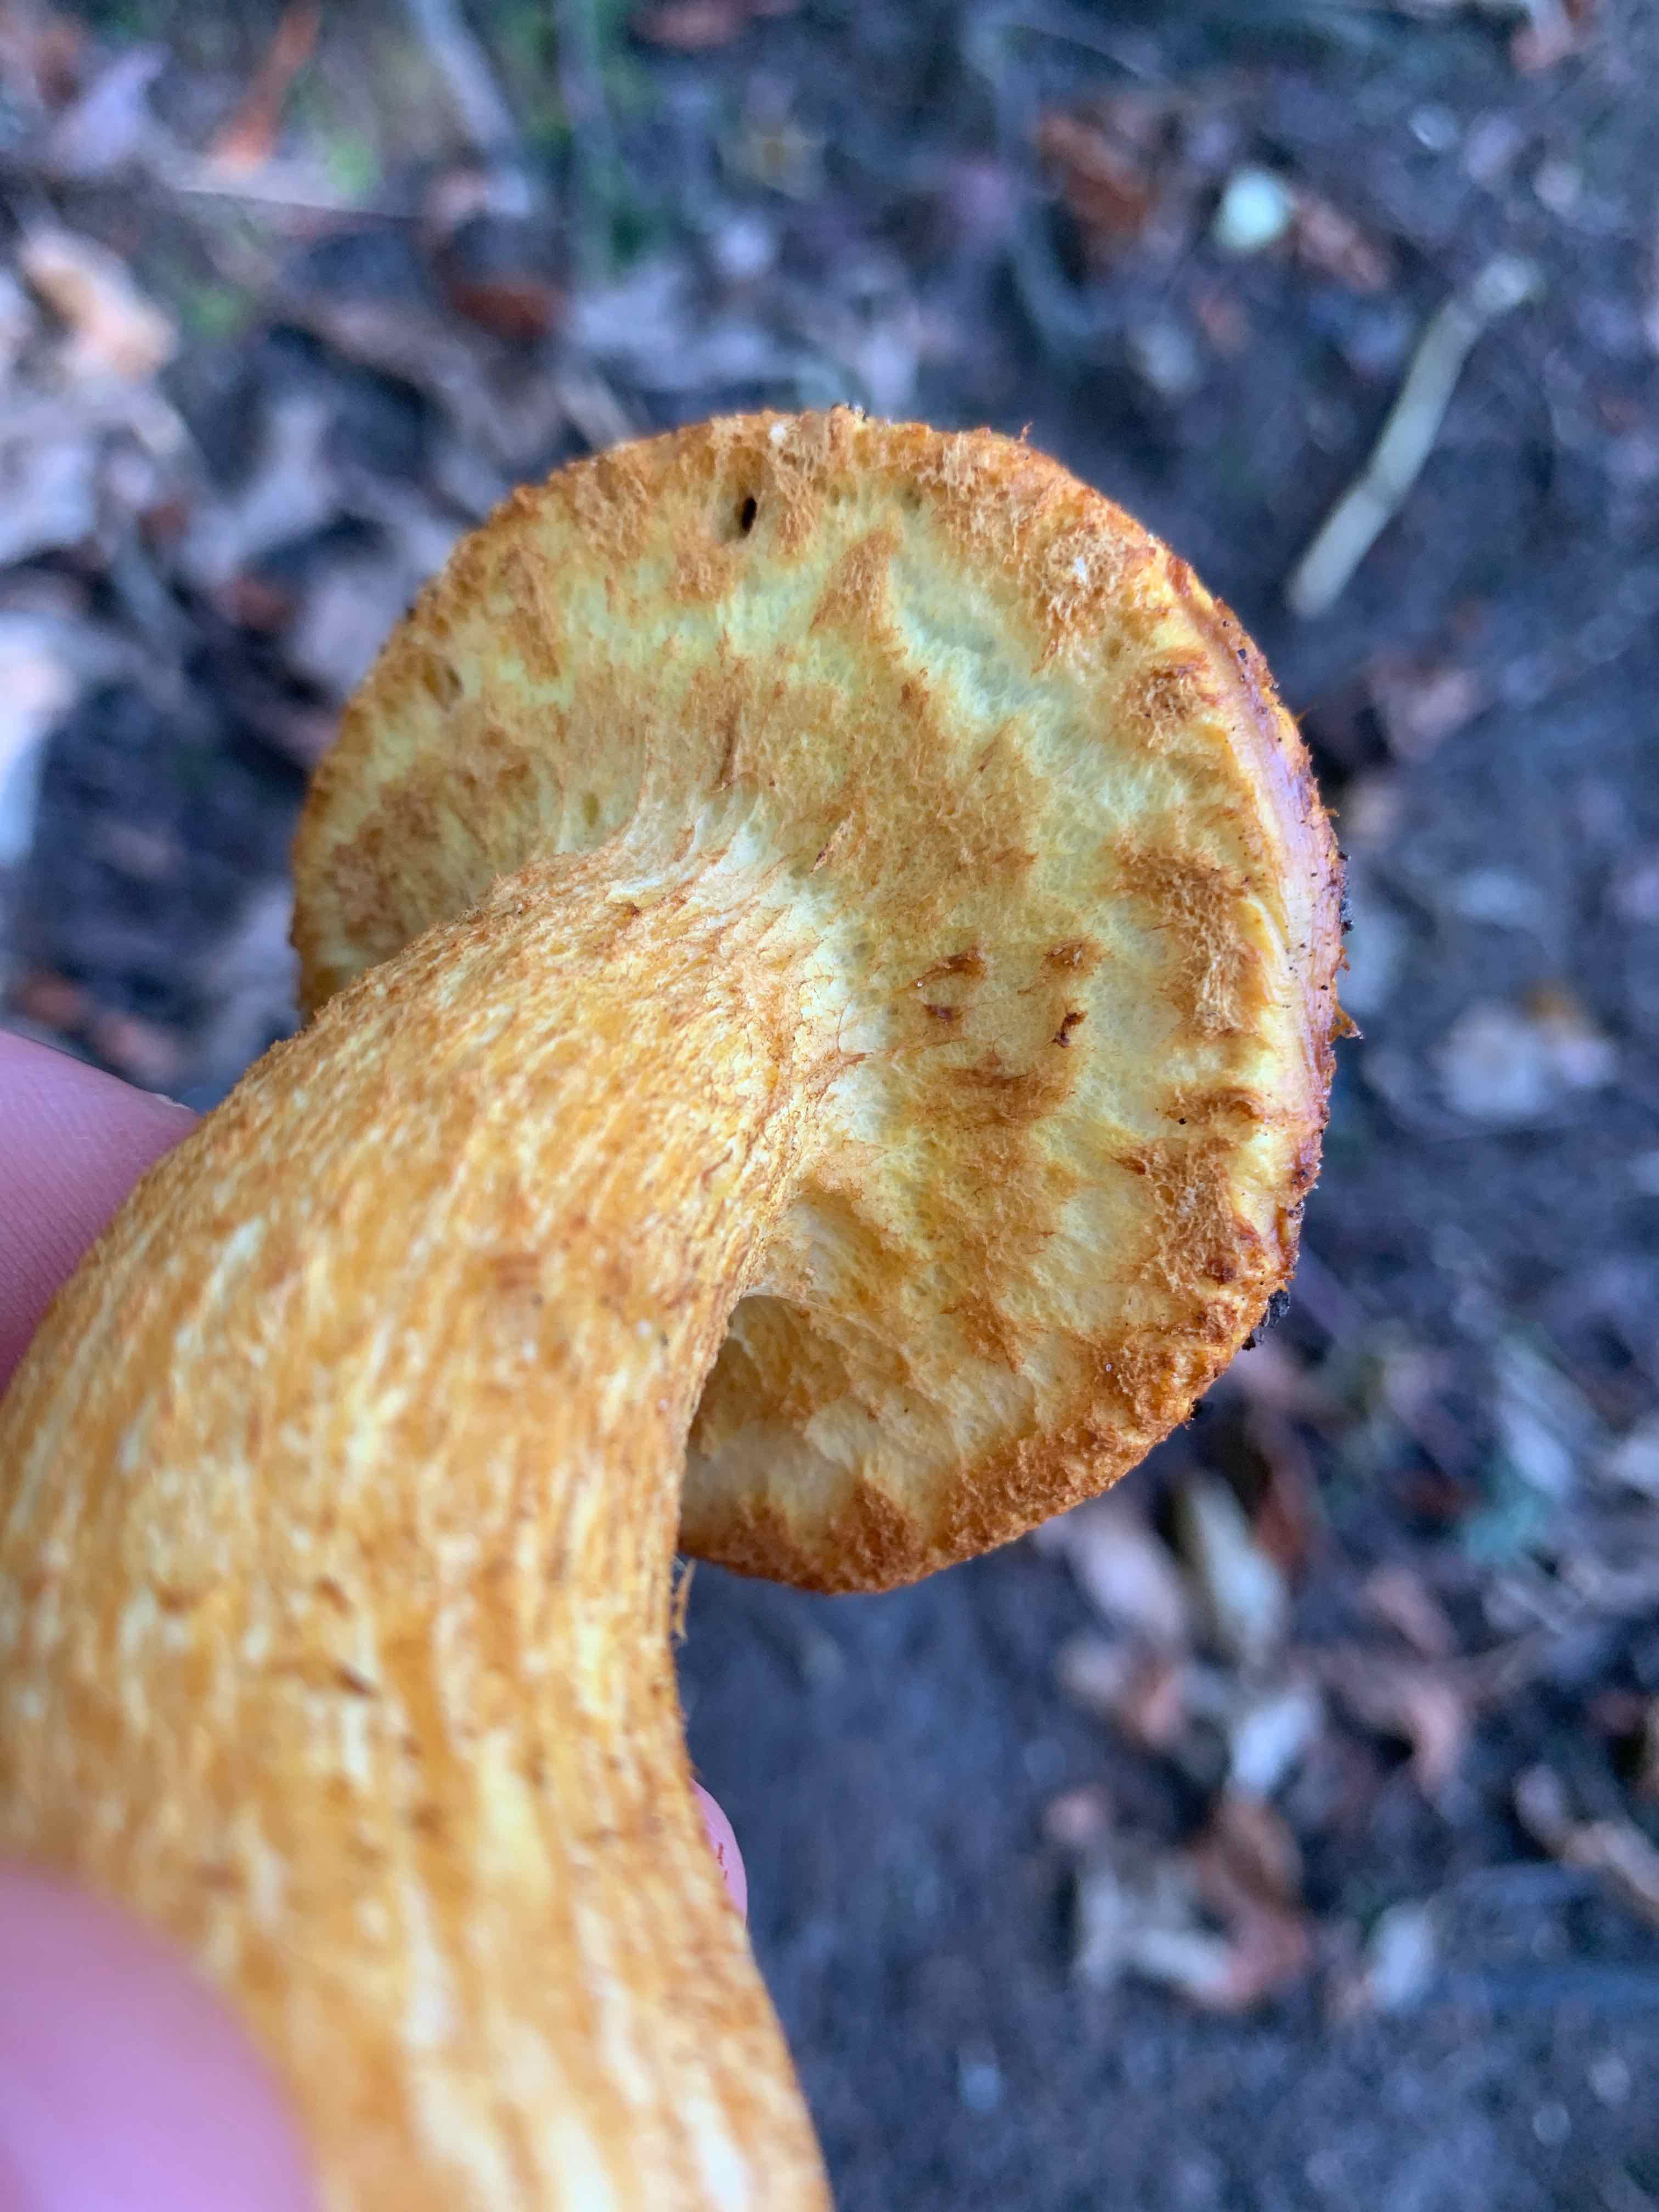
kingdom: Fungi
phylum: Basidiomycota
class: Agaricomycetes
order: Agaricales
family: Hymenogastraceae
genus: Gymnopilus
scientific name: Gymnopilus spectabilis
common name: fibret flammehat
